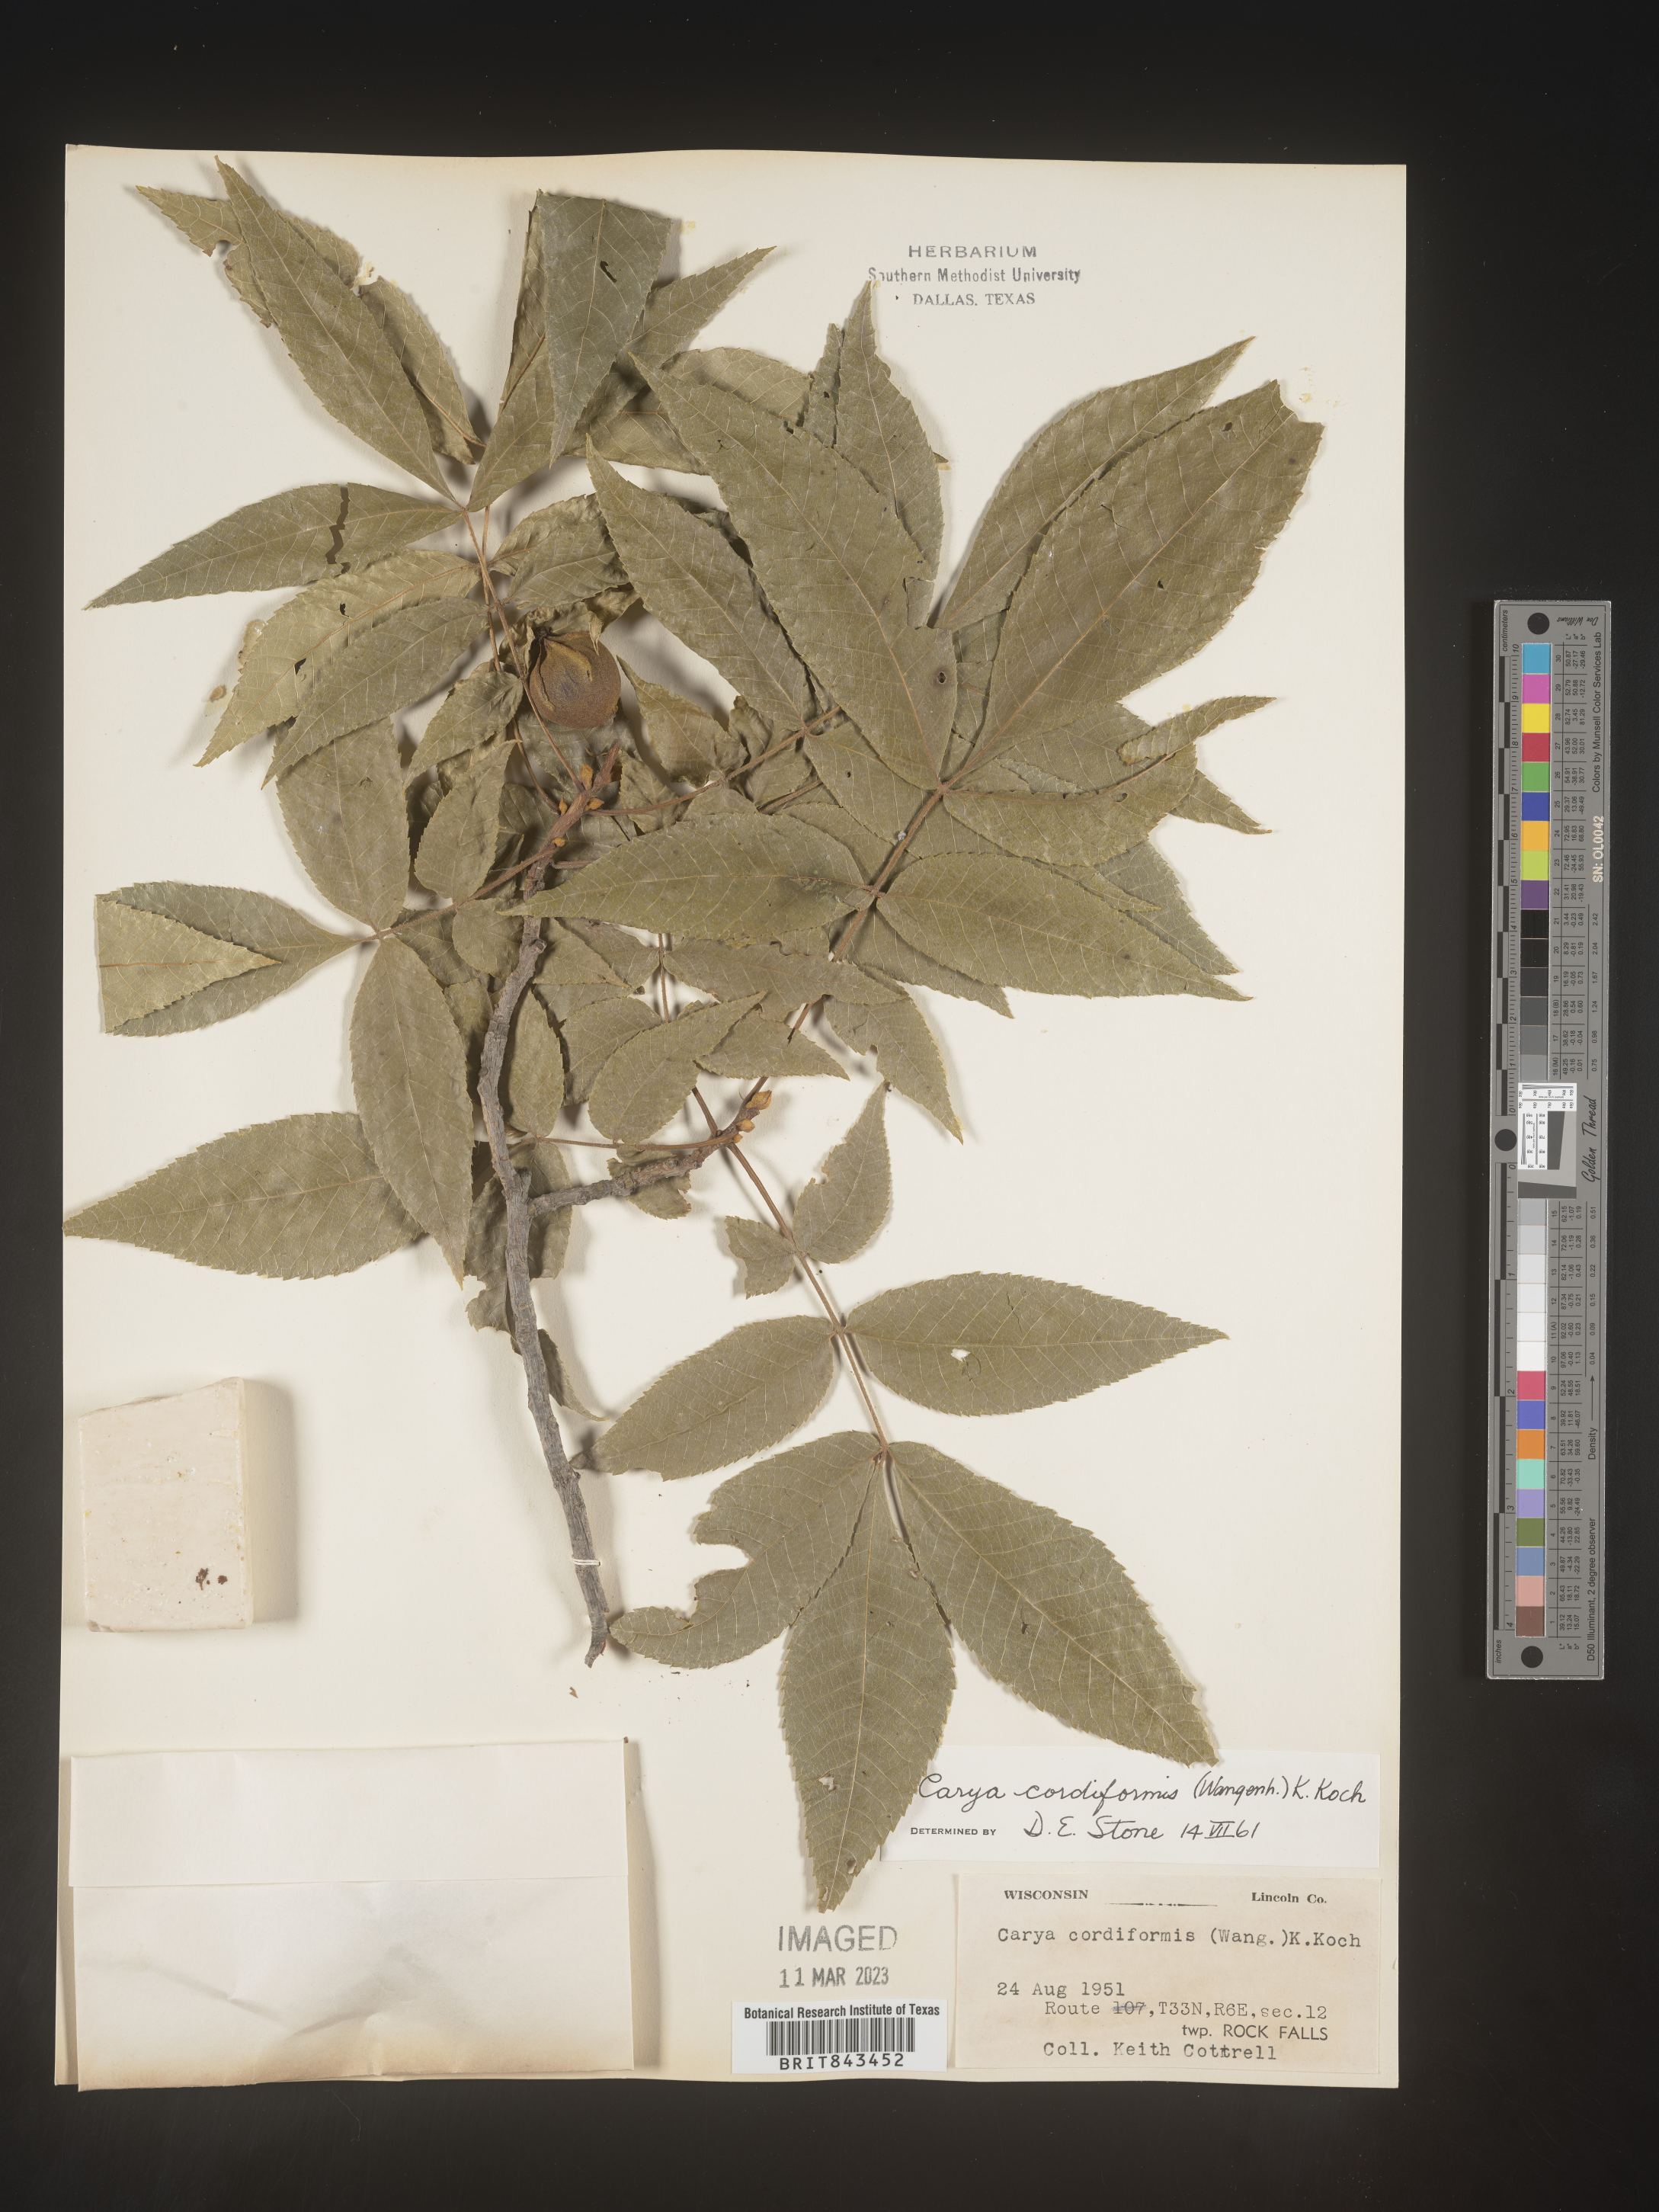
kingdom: Plantae
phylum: Tracheophyta
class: Magnoliopsida
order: Fagales
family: Juglandaceae
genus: Carya
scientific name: Carya cordiformis
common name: Bitternut hickory
